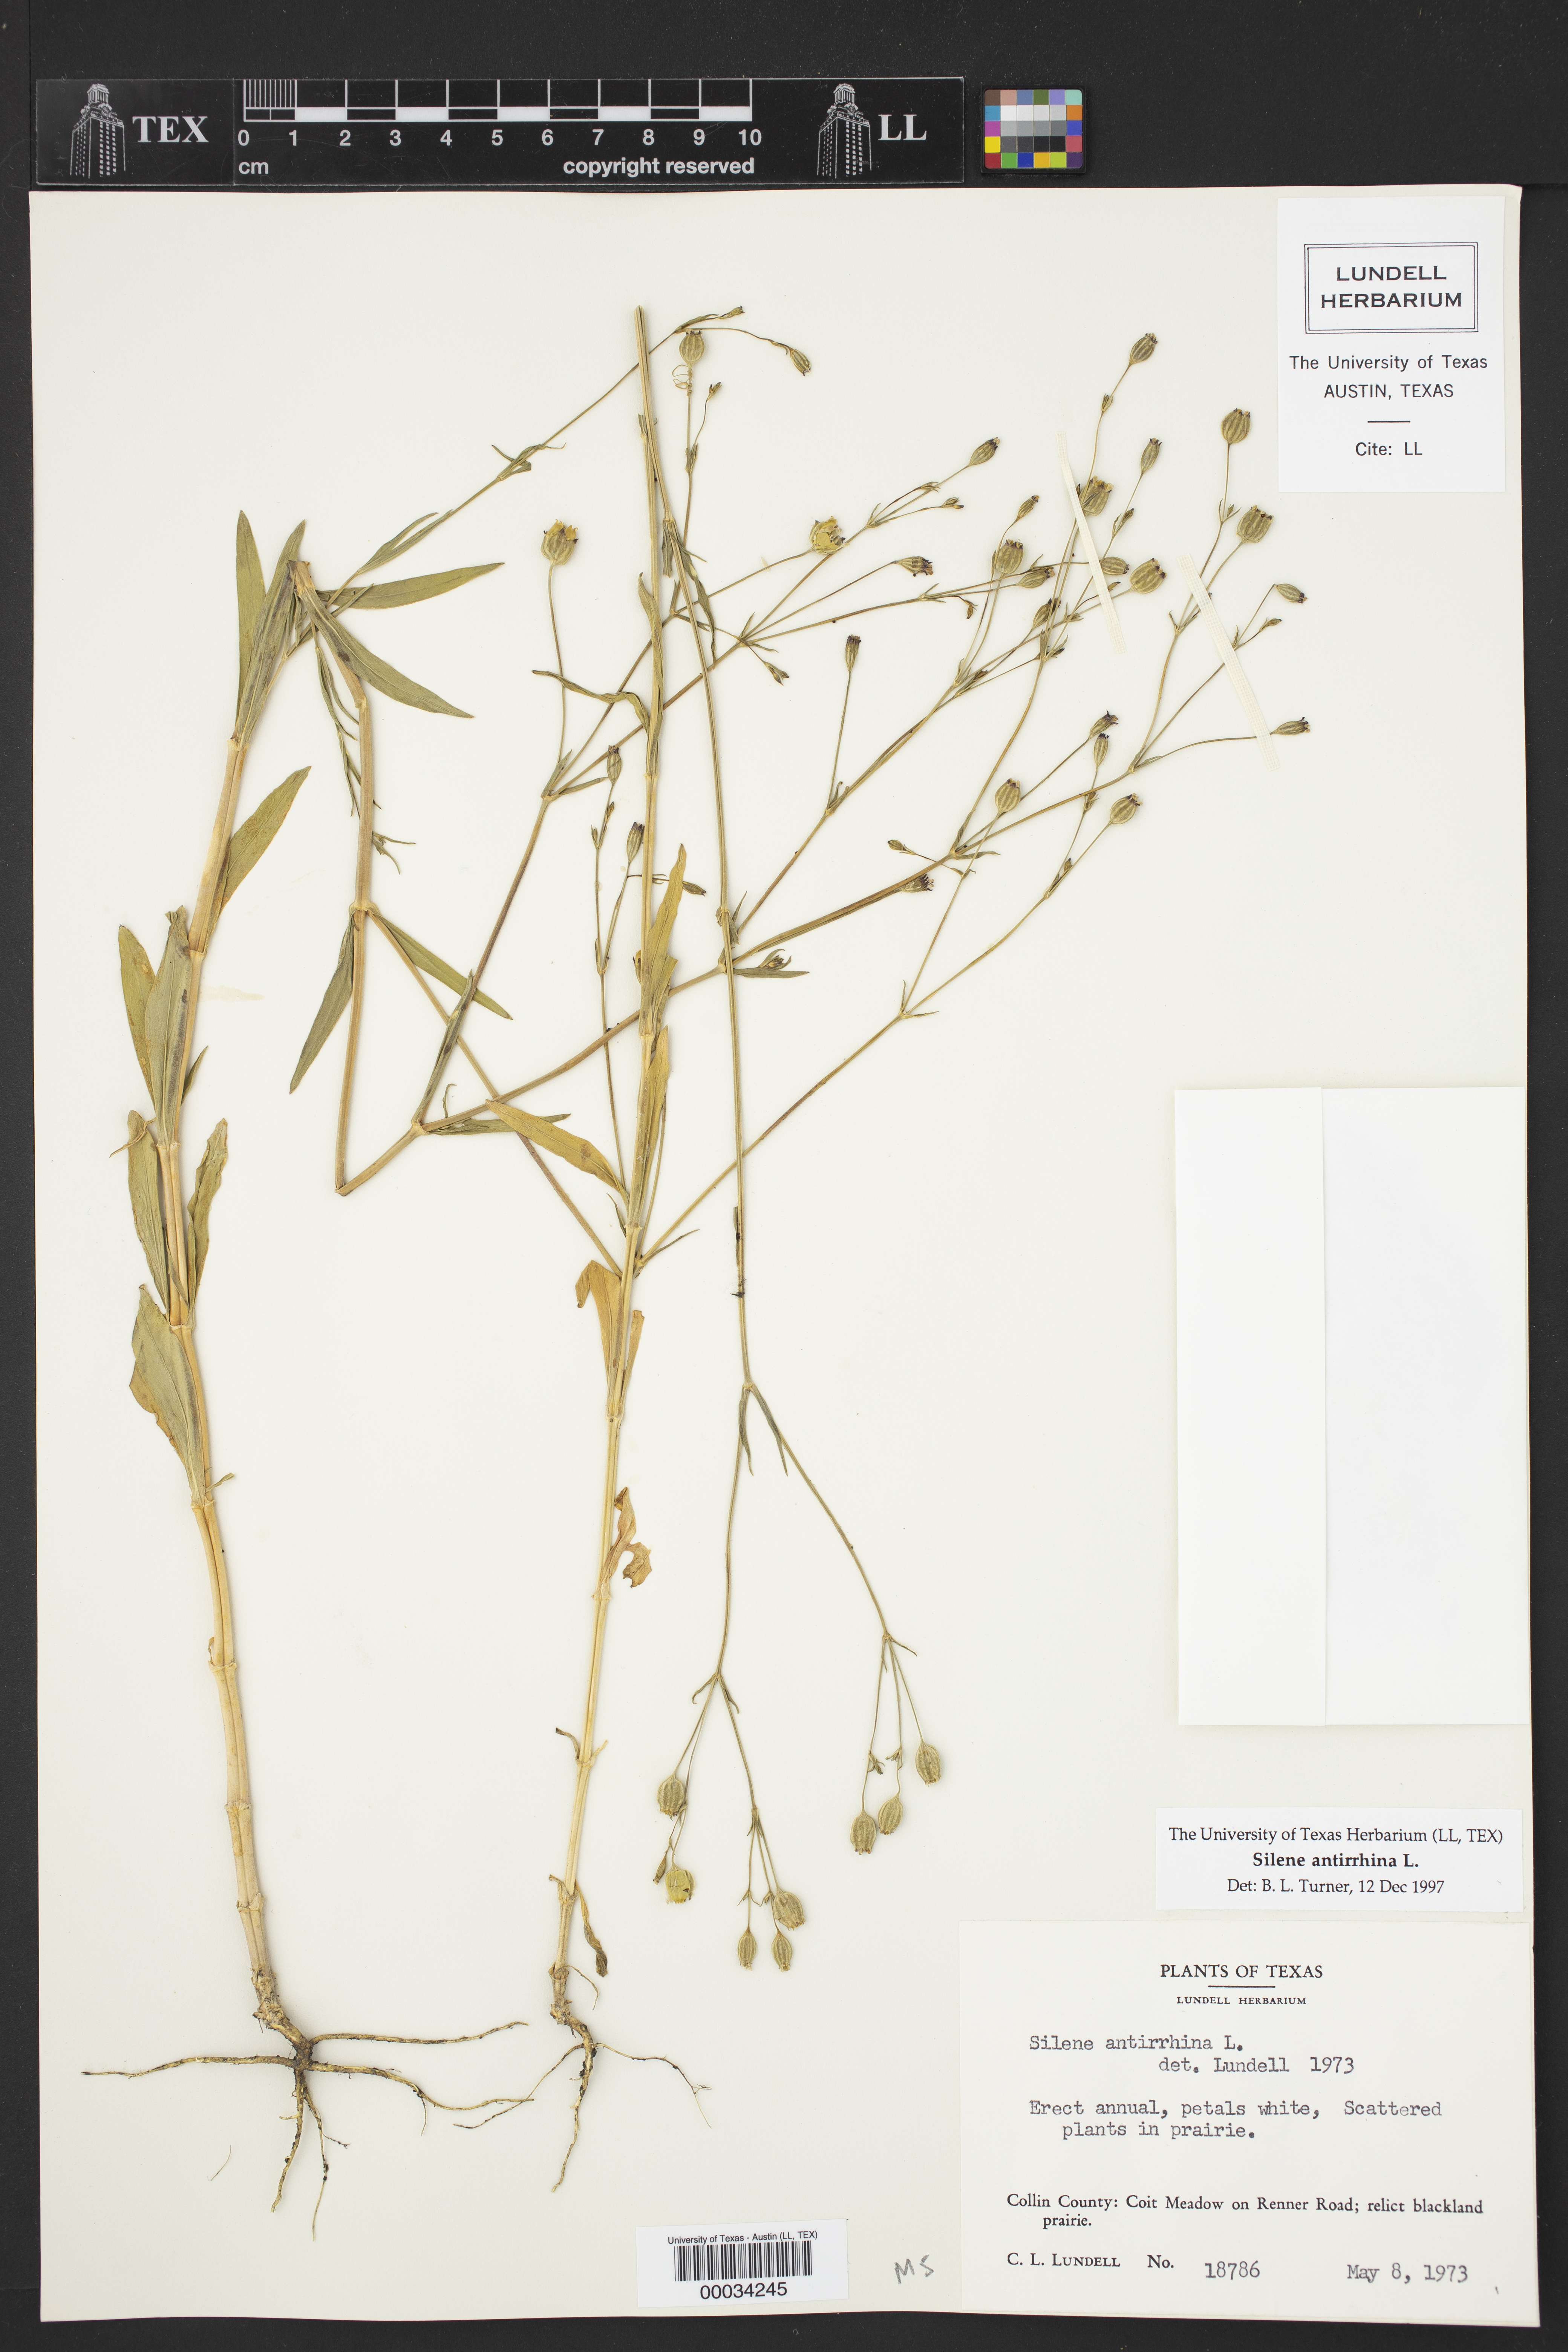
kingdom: Plantae
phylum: Tracheophyta
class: Magnoliopsida
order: Caryophyllales
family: Caryophyllaceae
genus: Silene
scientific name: Silene antirrhina
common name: Sleepy catchfly
